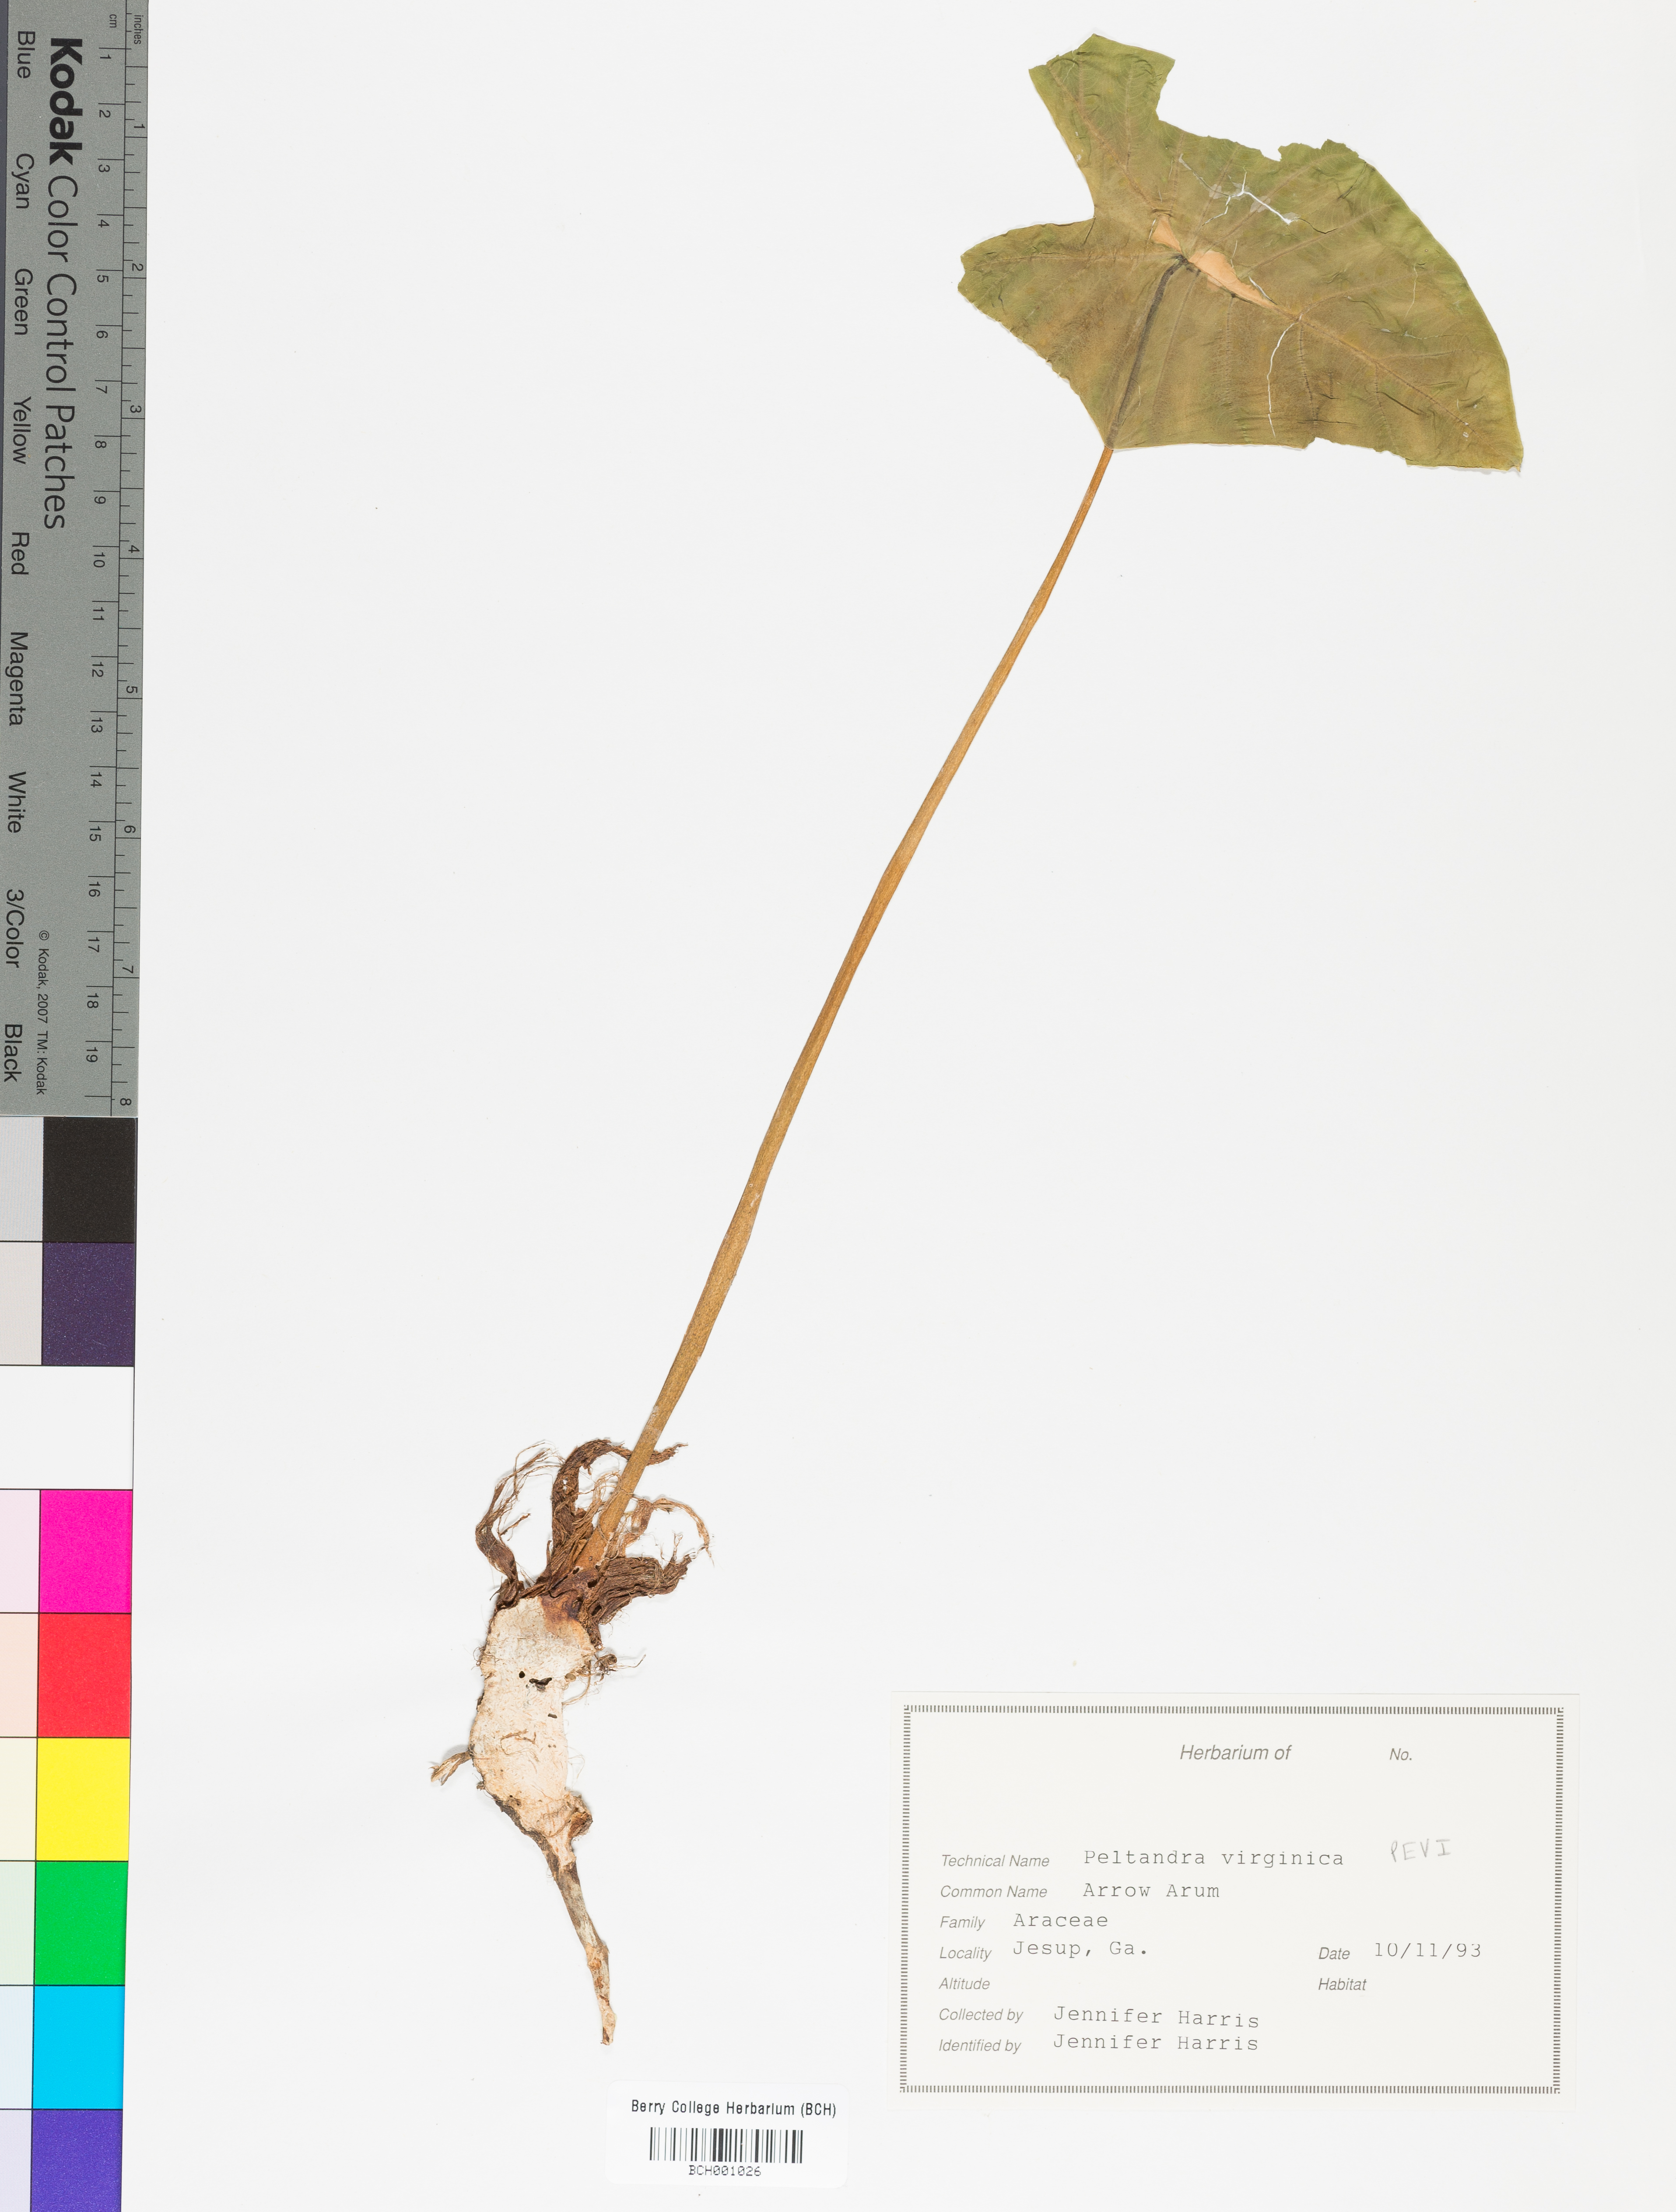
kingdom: Plantae
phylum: Tracheophyta
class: Liliopsida
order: Alismatales
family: Araceae
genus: Peltandra
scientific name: Peltandra virginica
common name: Arrow arum
